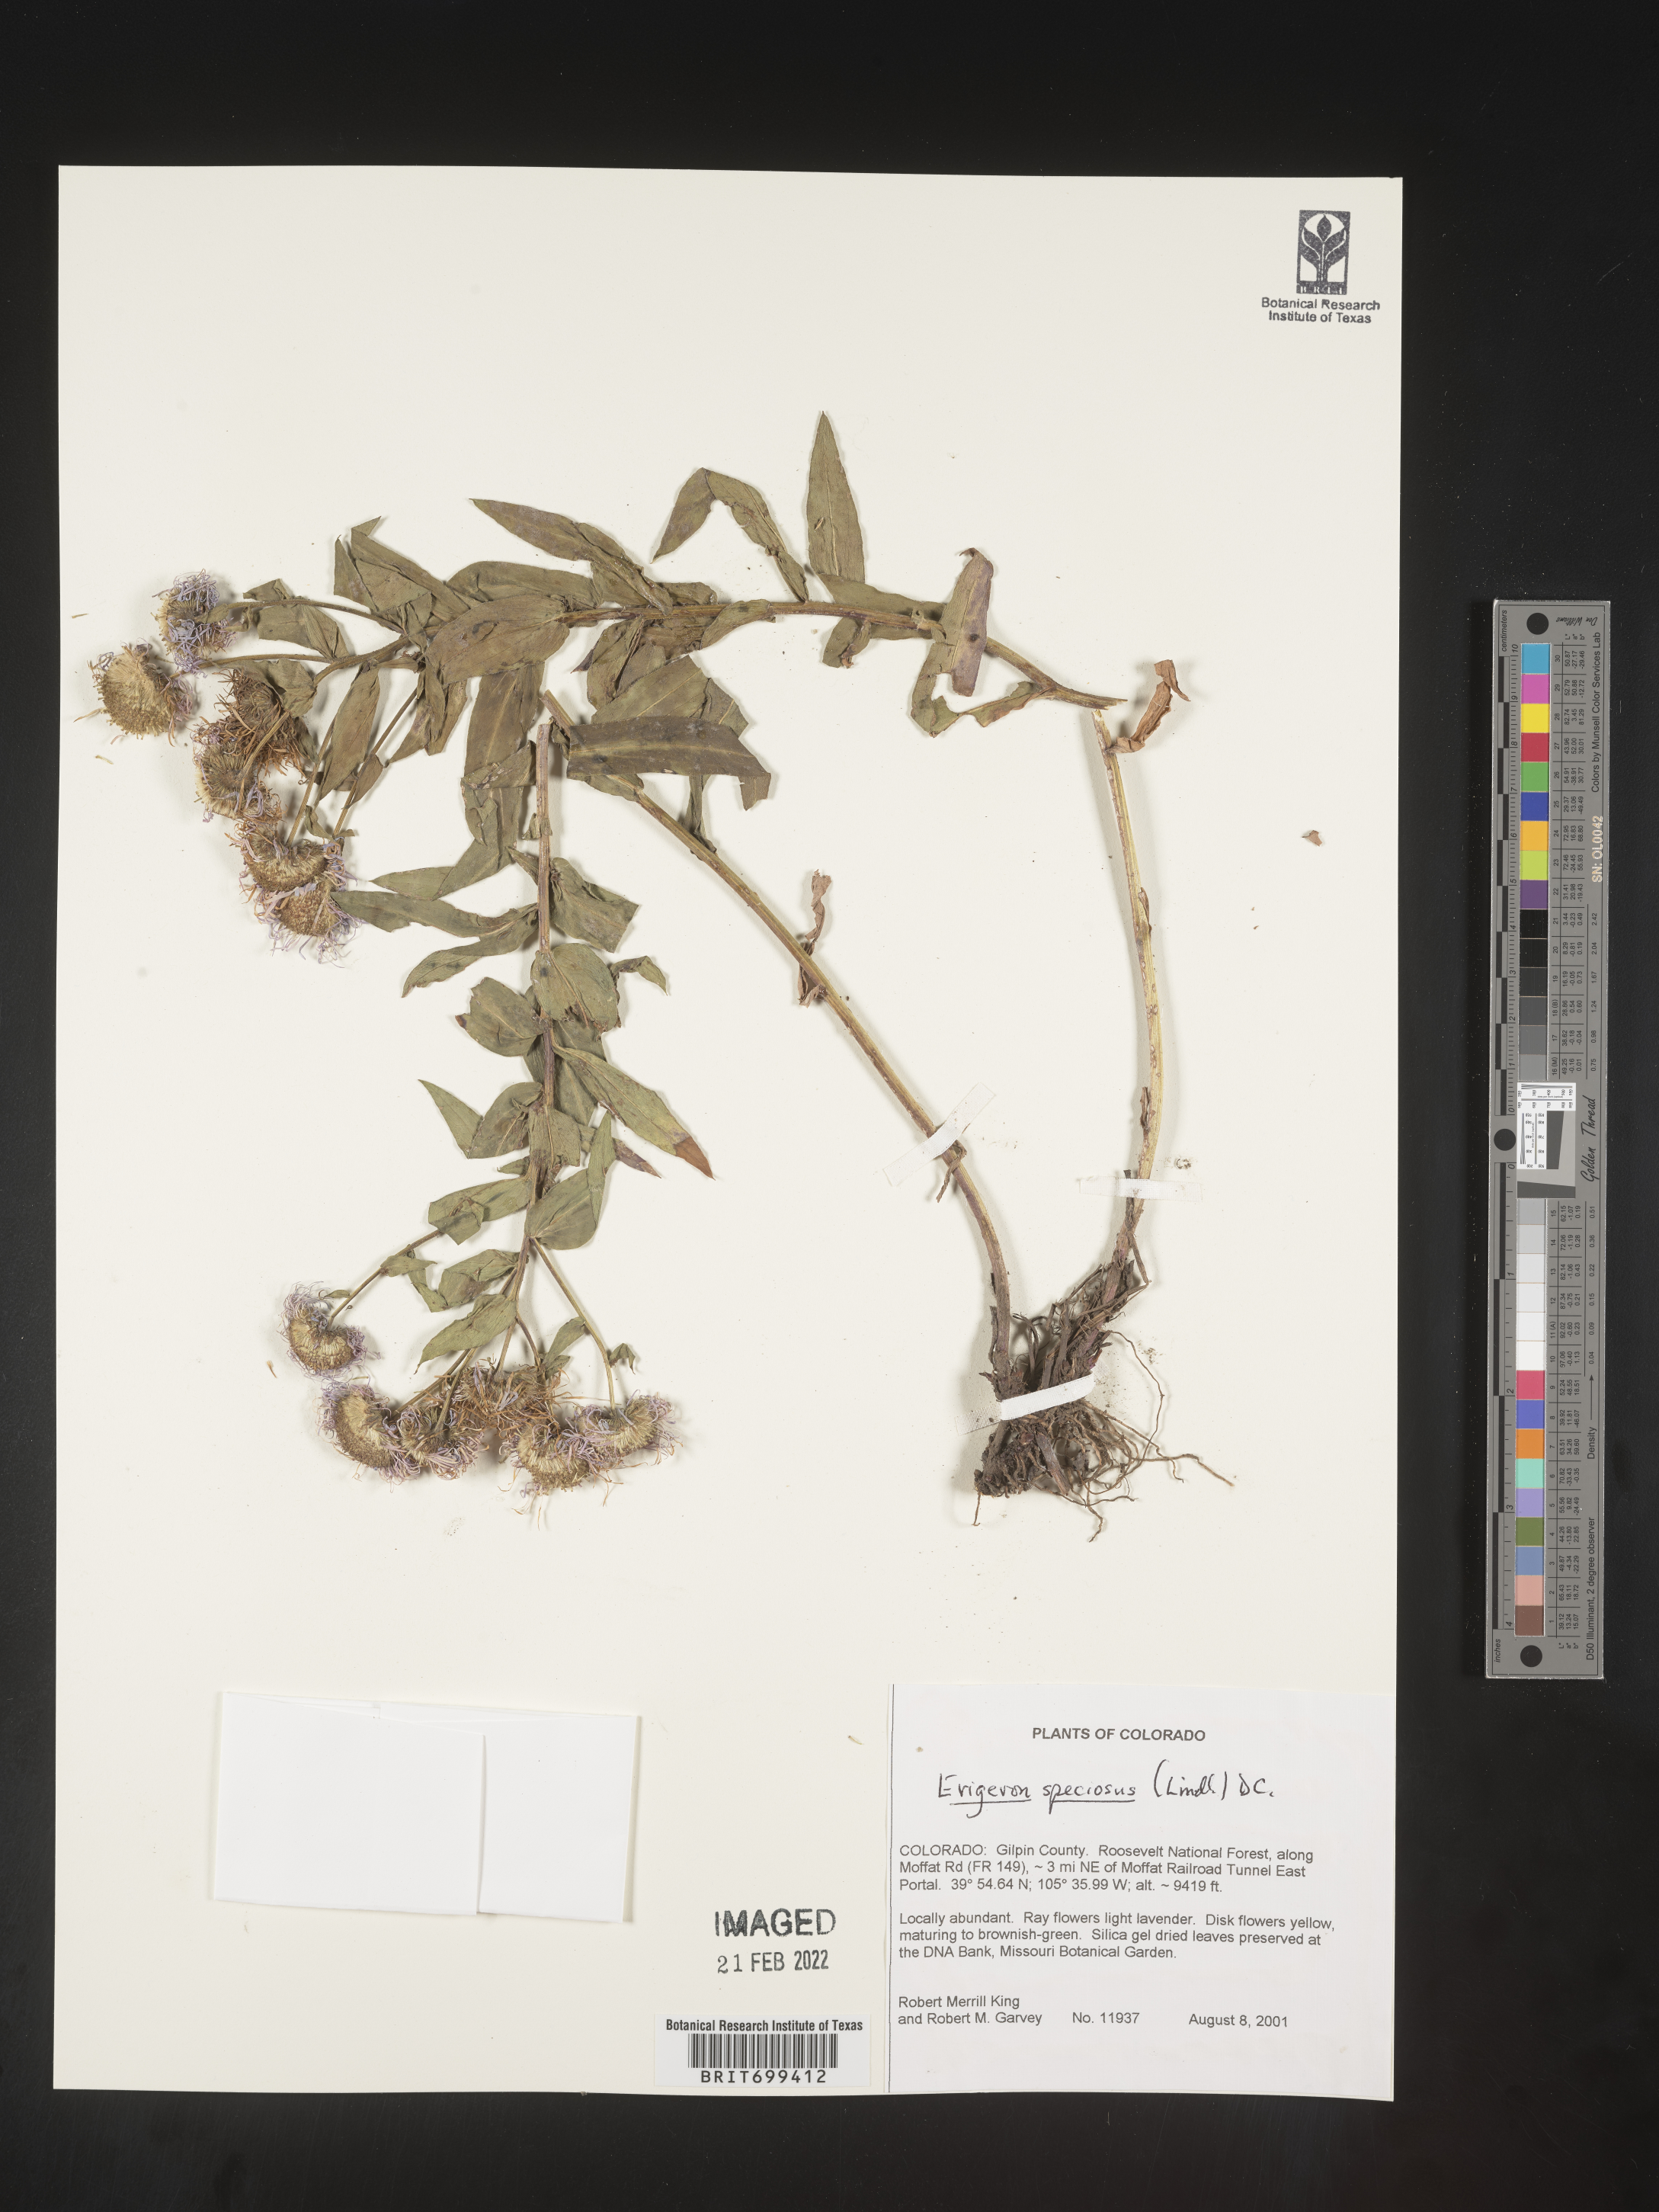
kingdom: Plantae
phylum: Tracheophyta
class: Magnoliopsida
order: Asterales
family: Asteraceae
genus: Erigeron
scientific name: Erigeron speciosus
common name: Aspen fleabane
